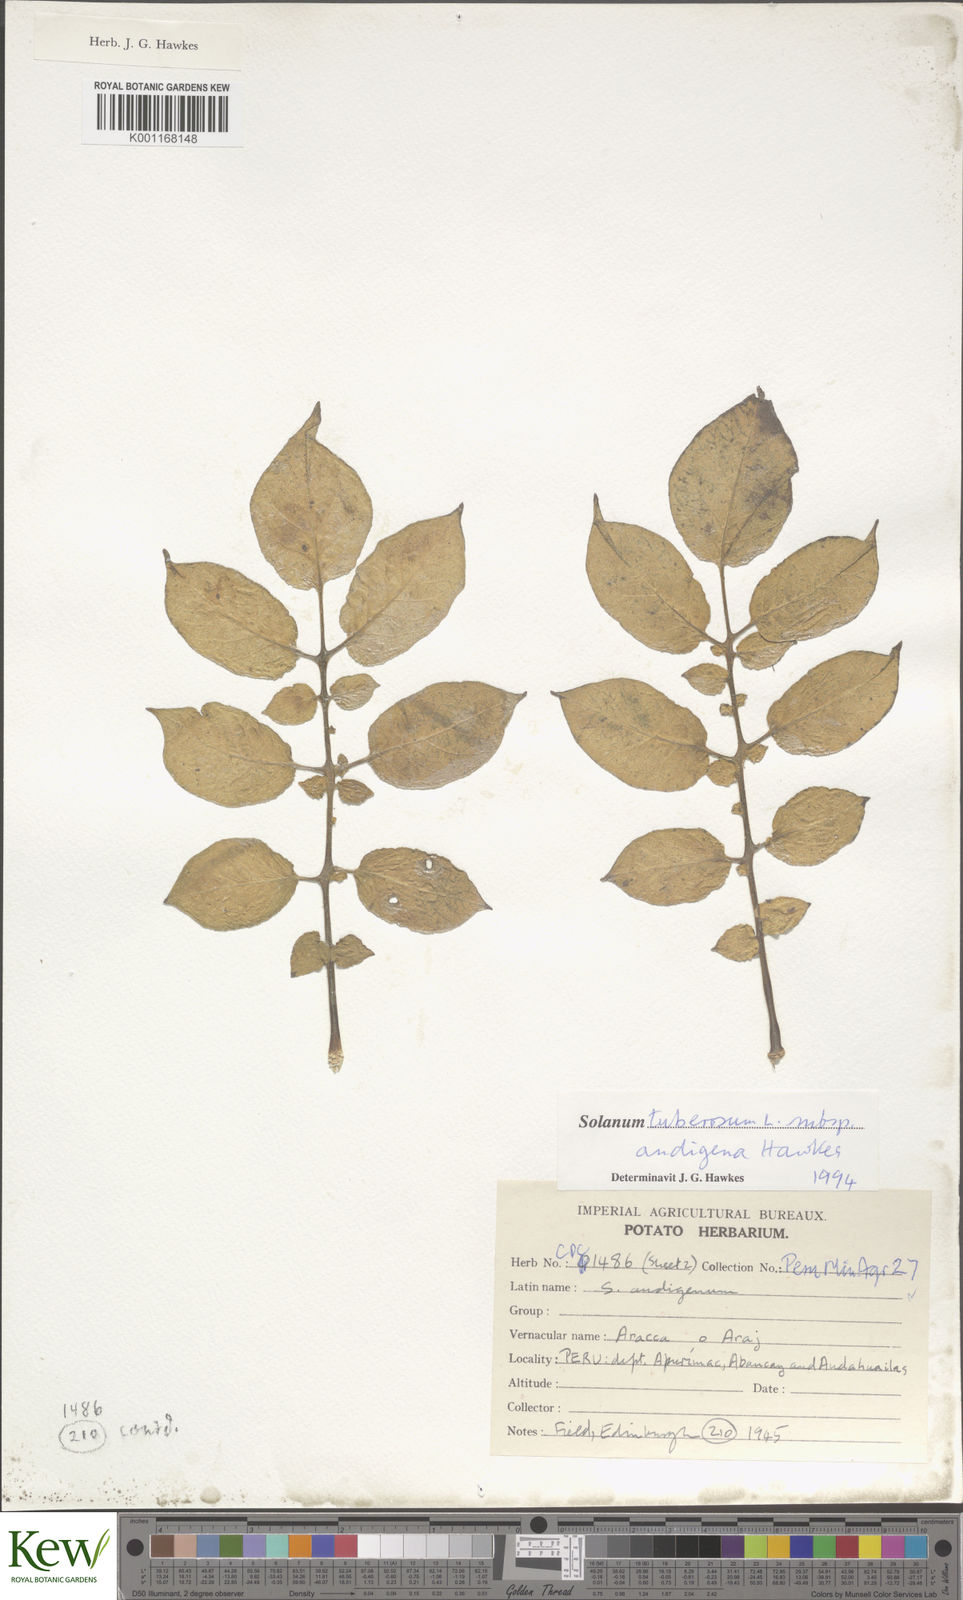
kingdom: Plantae
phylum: Tracheophyta
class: Magnoliopsida
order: Solanales
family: Solanaceae
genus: Solanum
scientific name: Solanum tuberosum
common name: Potato
